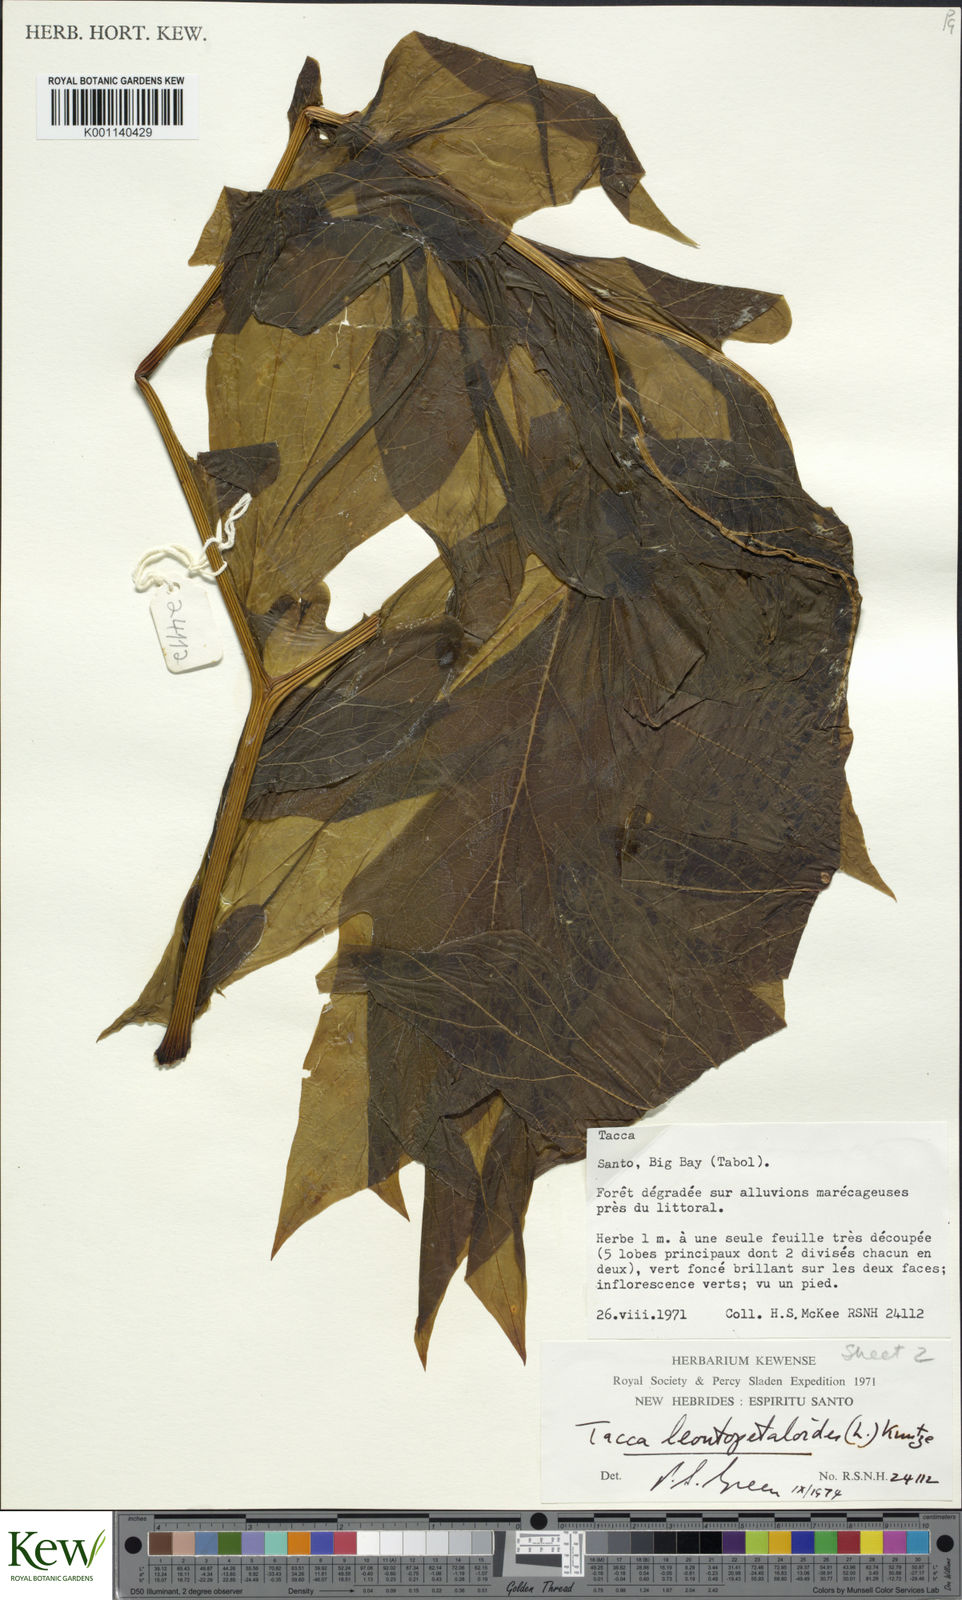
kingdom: Plantae
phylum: Tracheophyta
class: Liliopsida
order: Dioscoreales
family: Dioscoreaceae
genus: Tacca
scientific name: Tacca leontopetaloides
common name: Arrowroot
